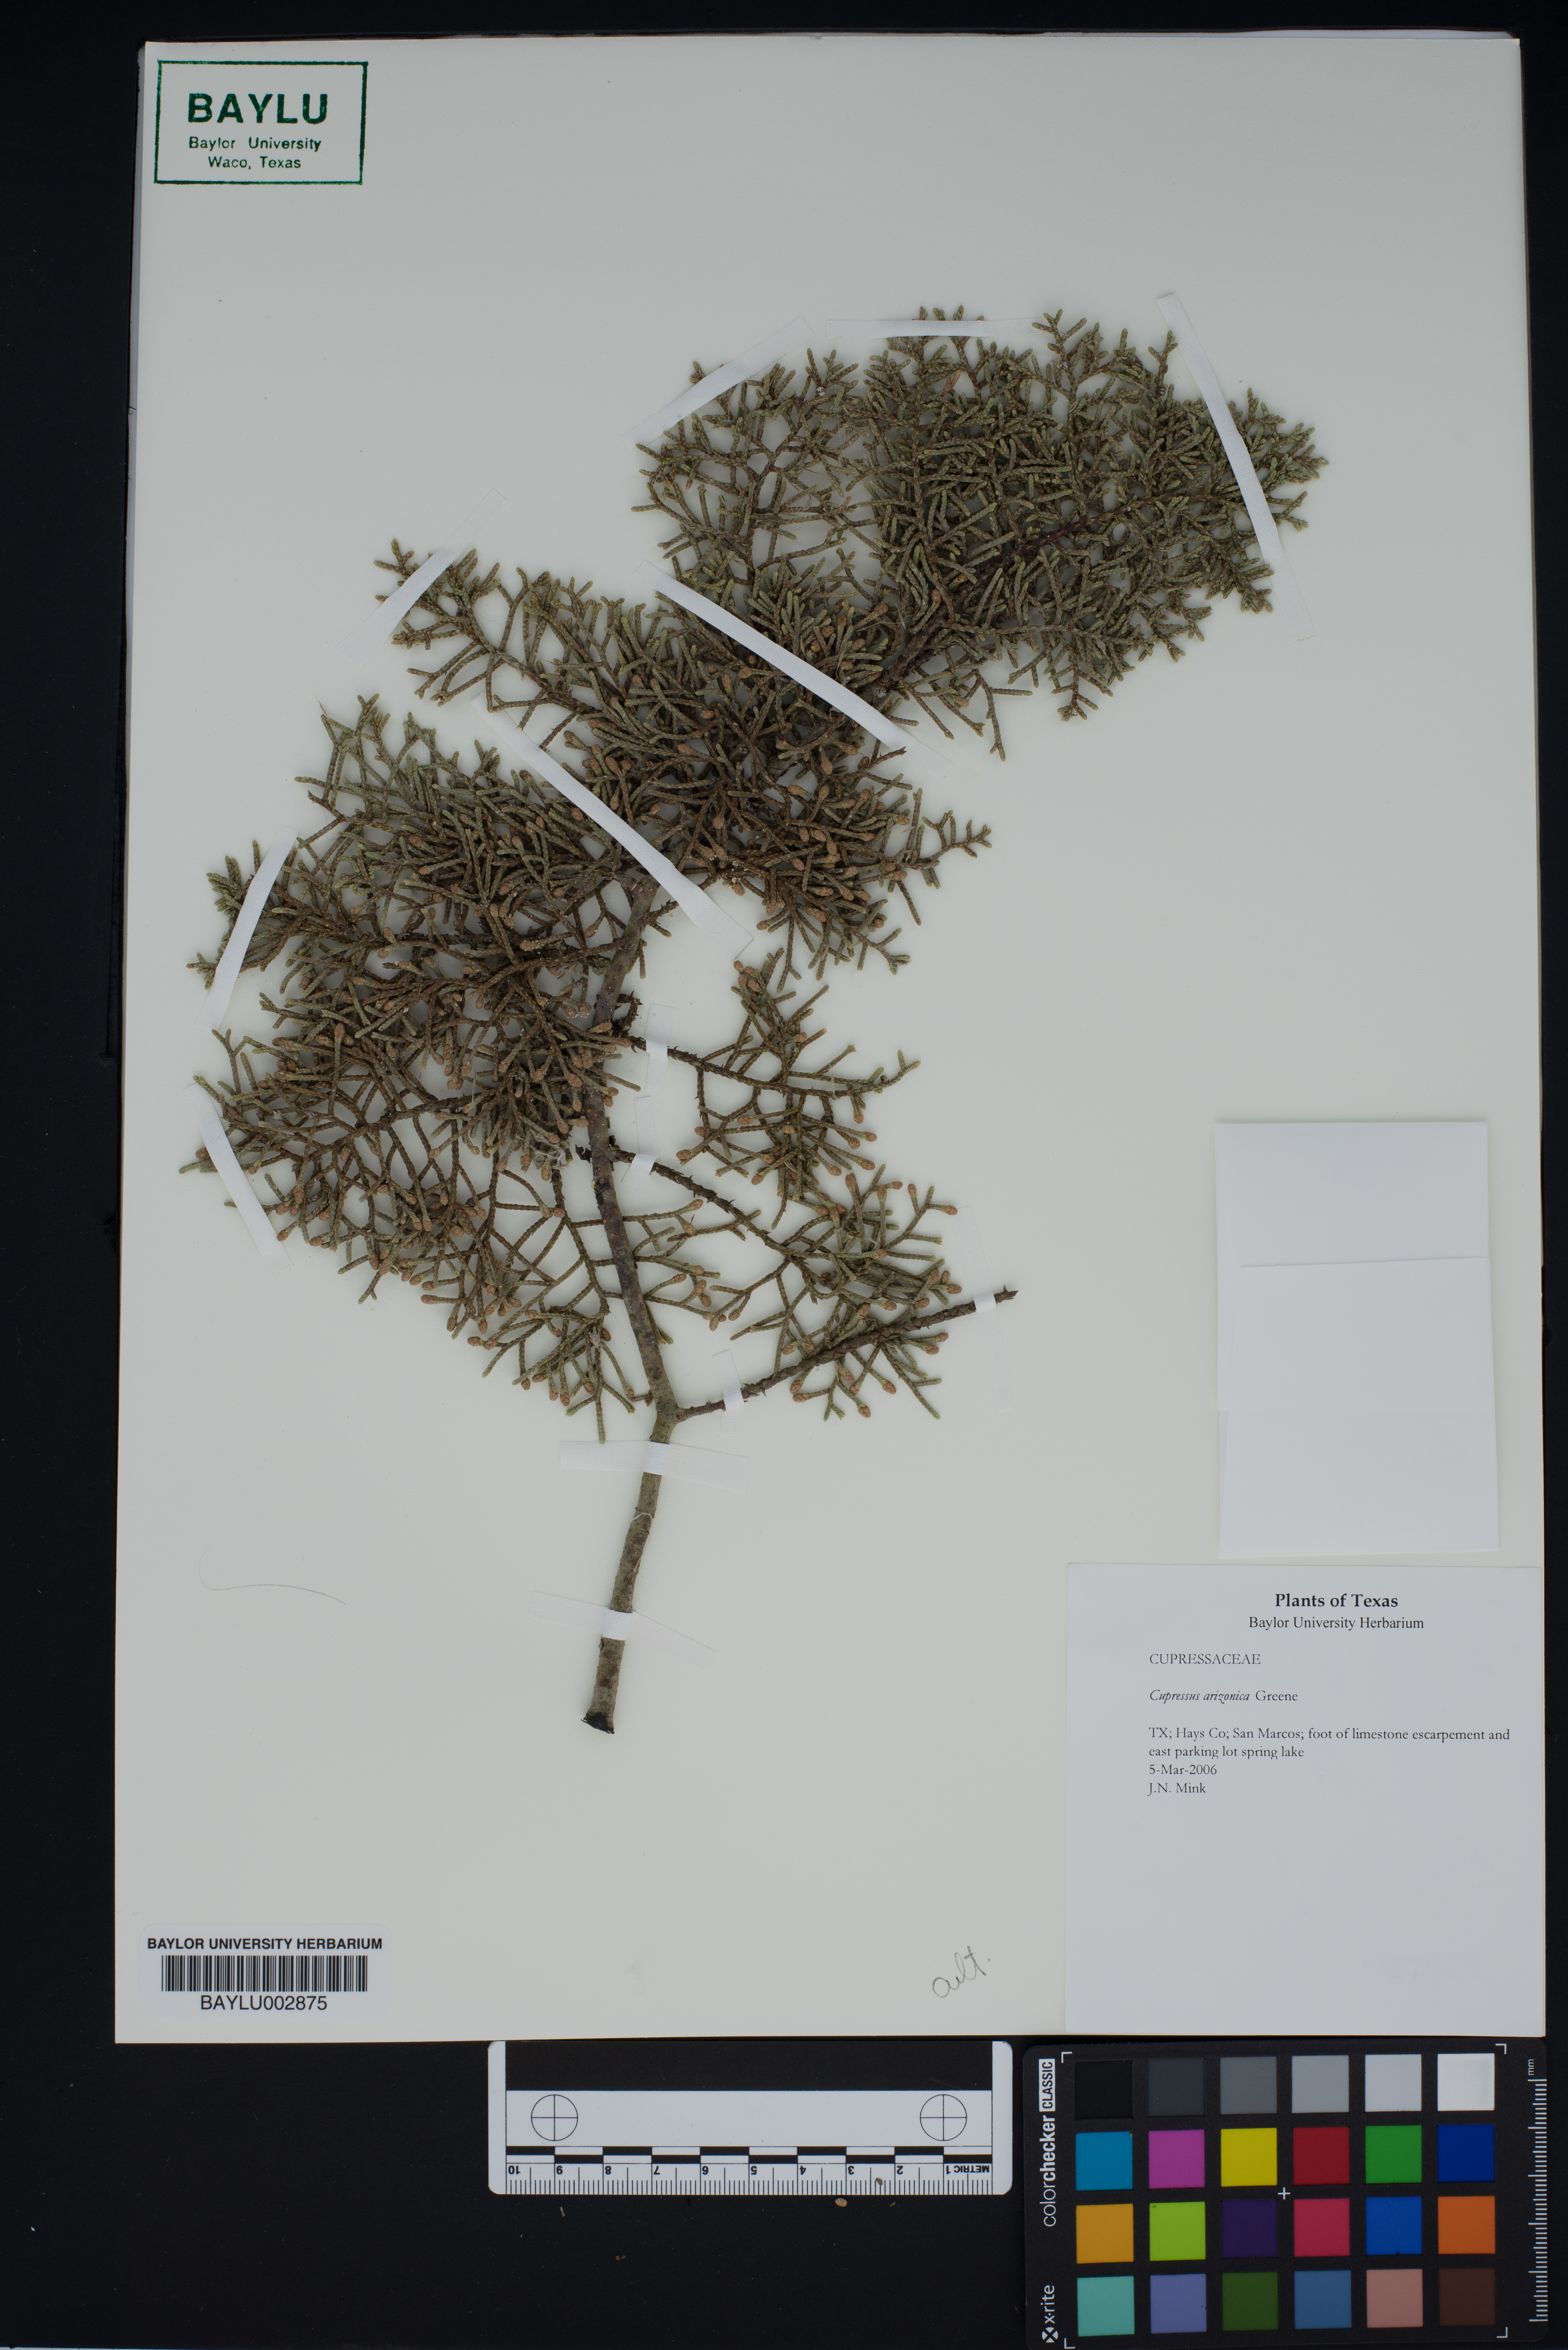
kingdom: Plantae
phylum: Tracheophyta
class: Pinopsida
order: Pinales
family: Cupressaceae
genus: Cupressus
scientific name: Cupressus arizonica
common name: Arizona cypress
